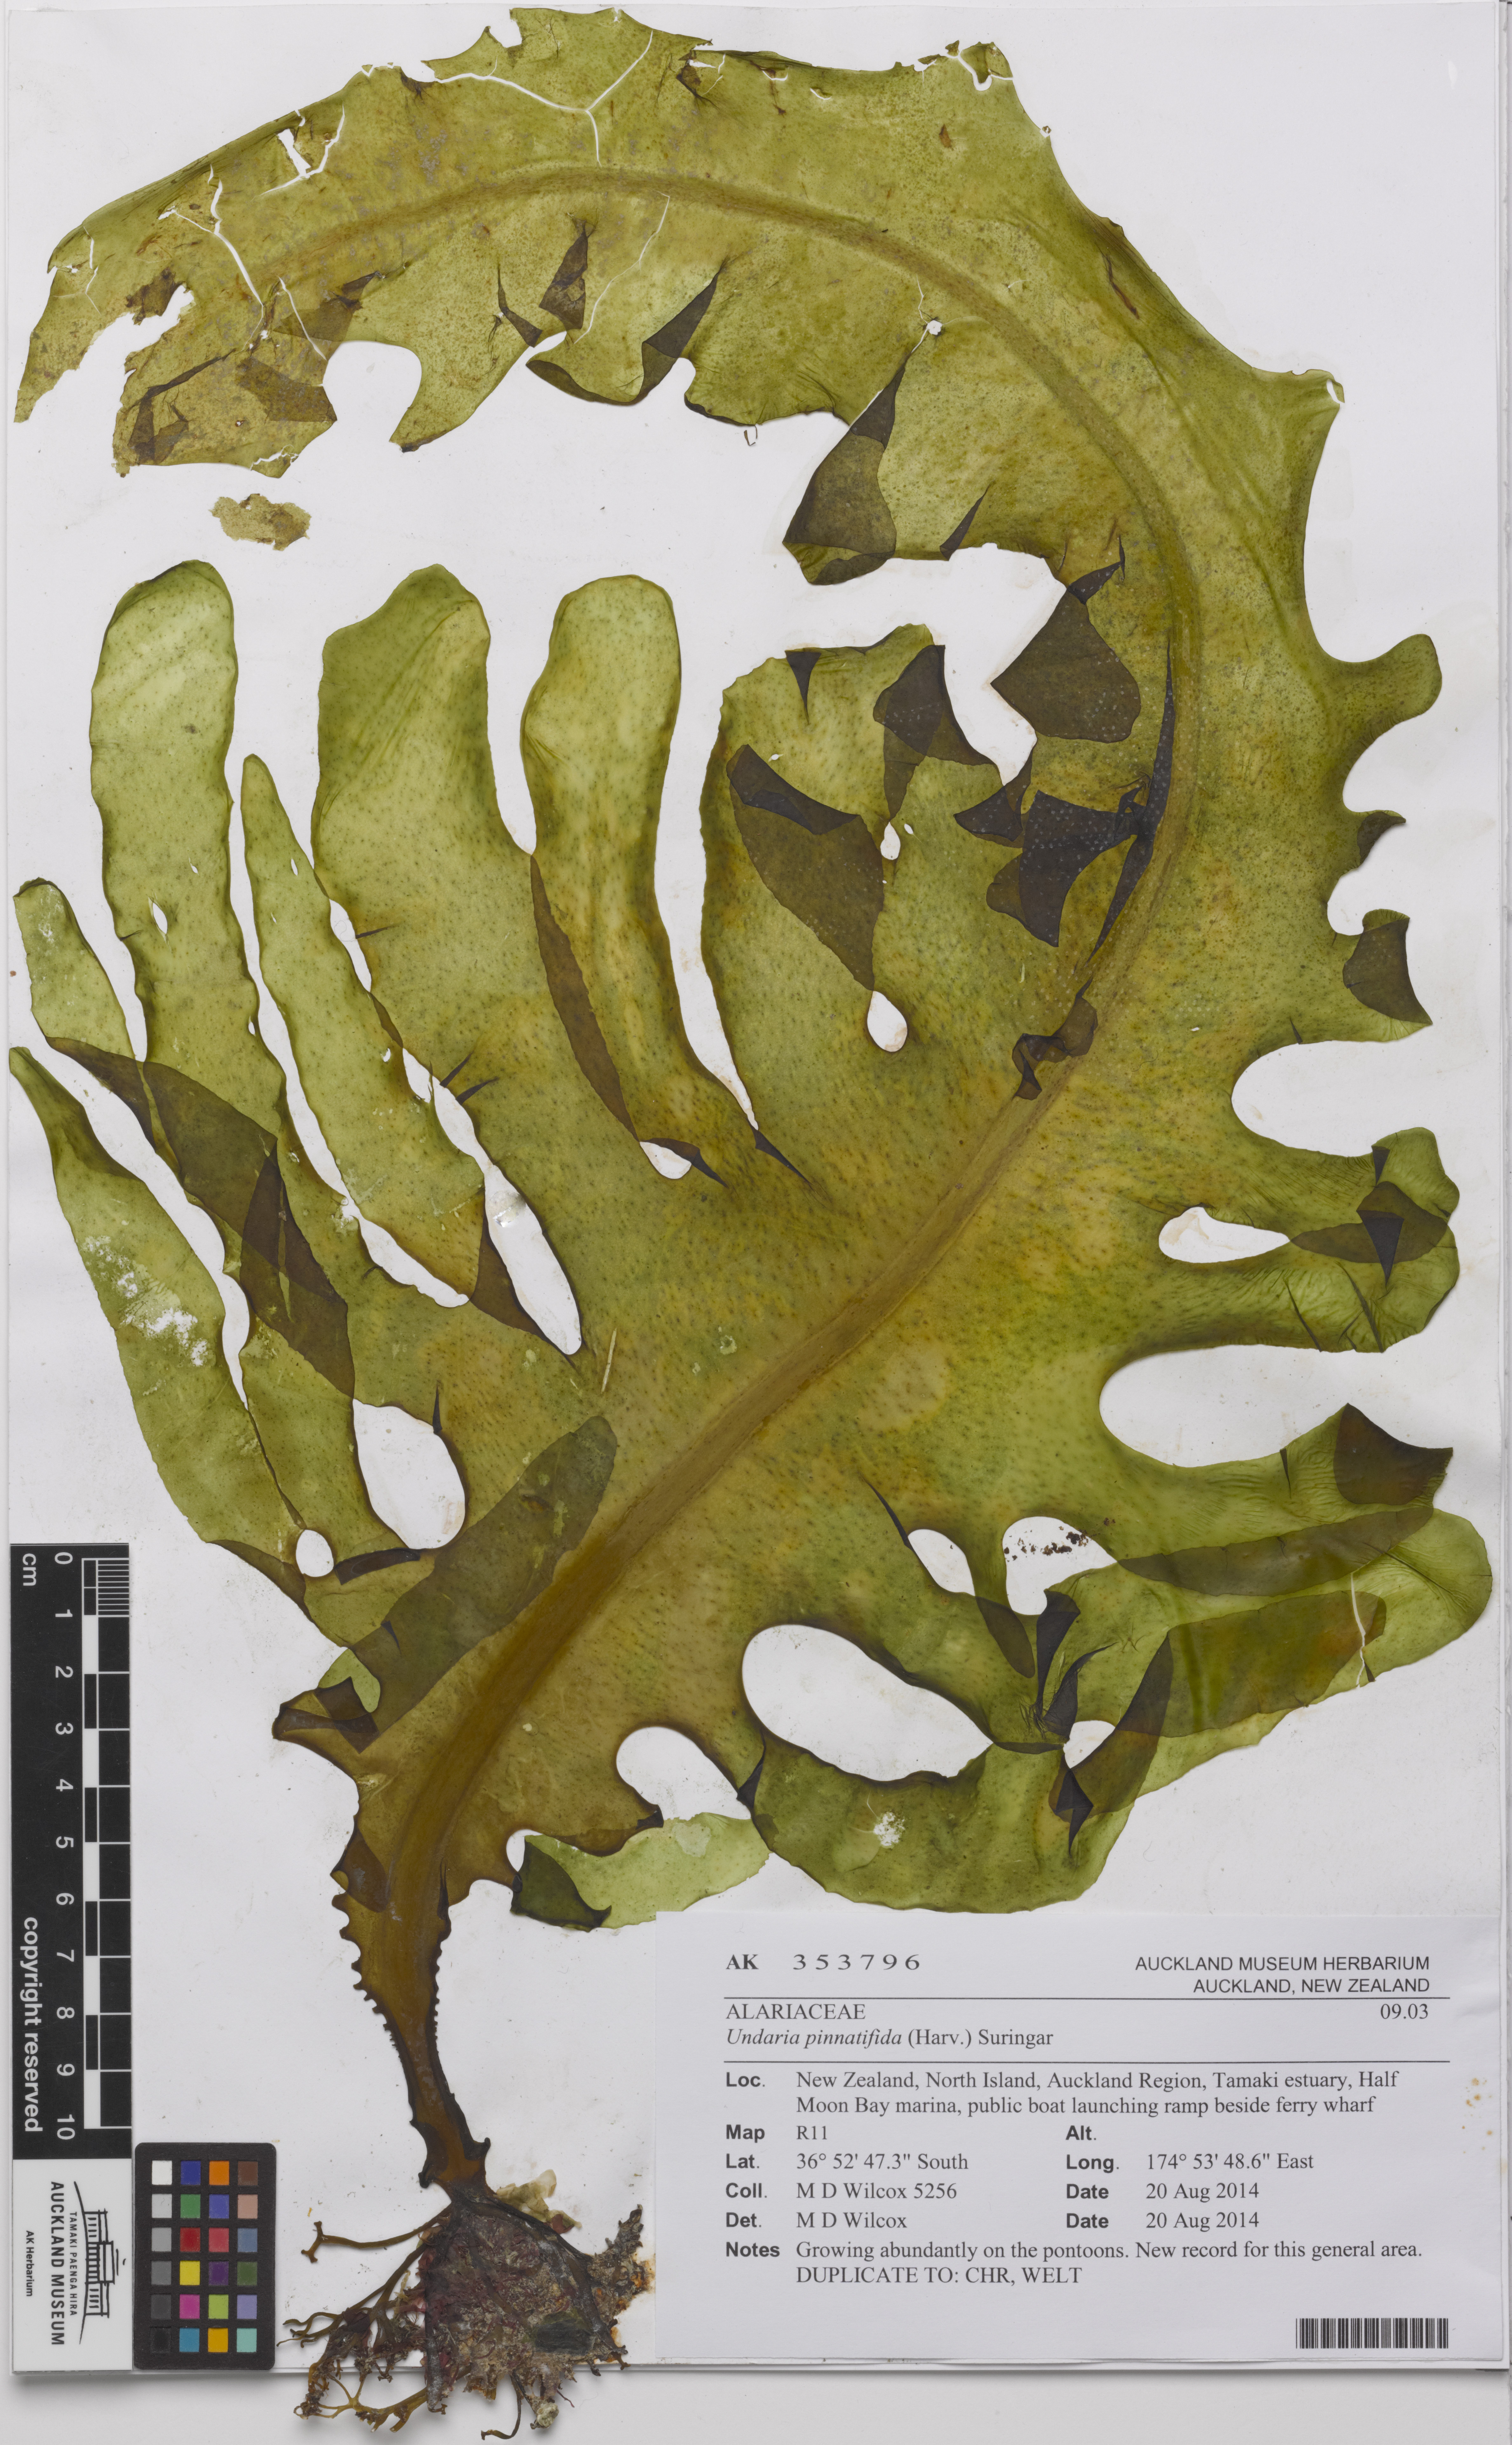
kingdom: Chromista
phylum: Ochrophyta
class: Phaeophyceae
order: Laminariales
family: Alariaceae
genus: Undaria
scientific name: Undaria pinnatifida
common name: Asian kelp
